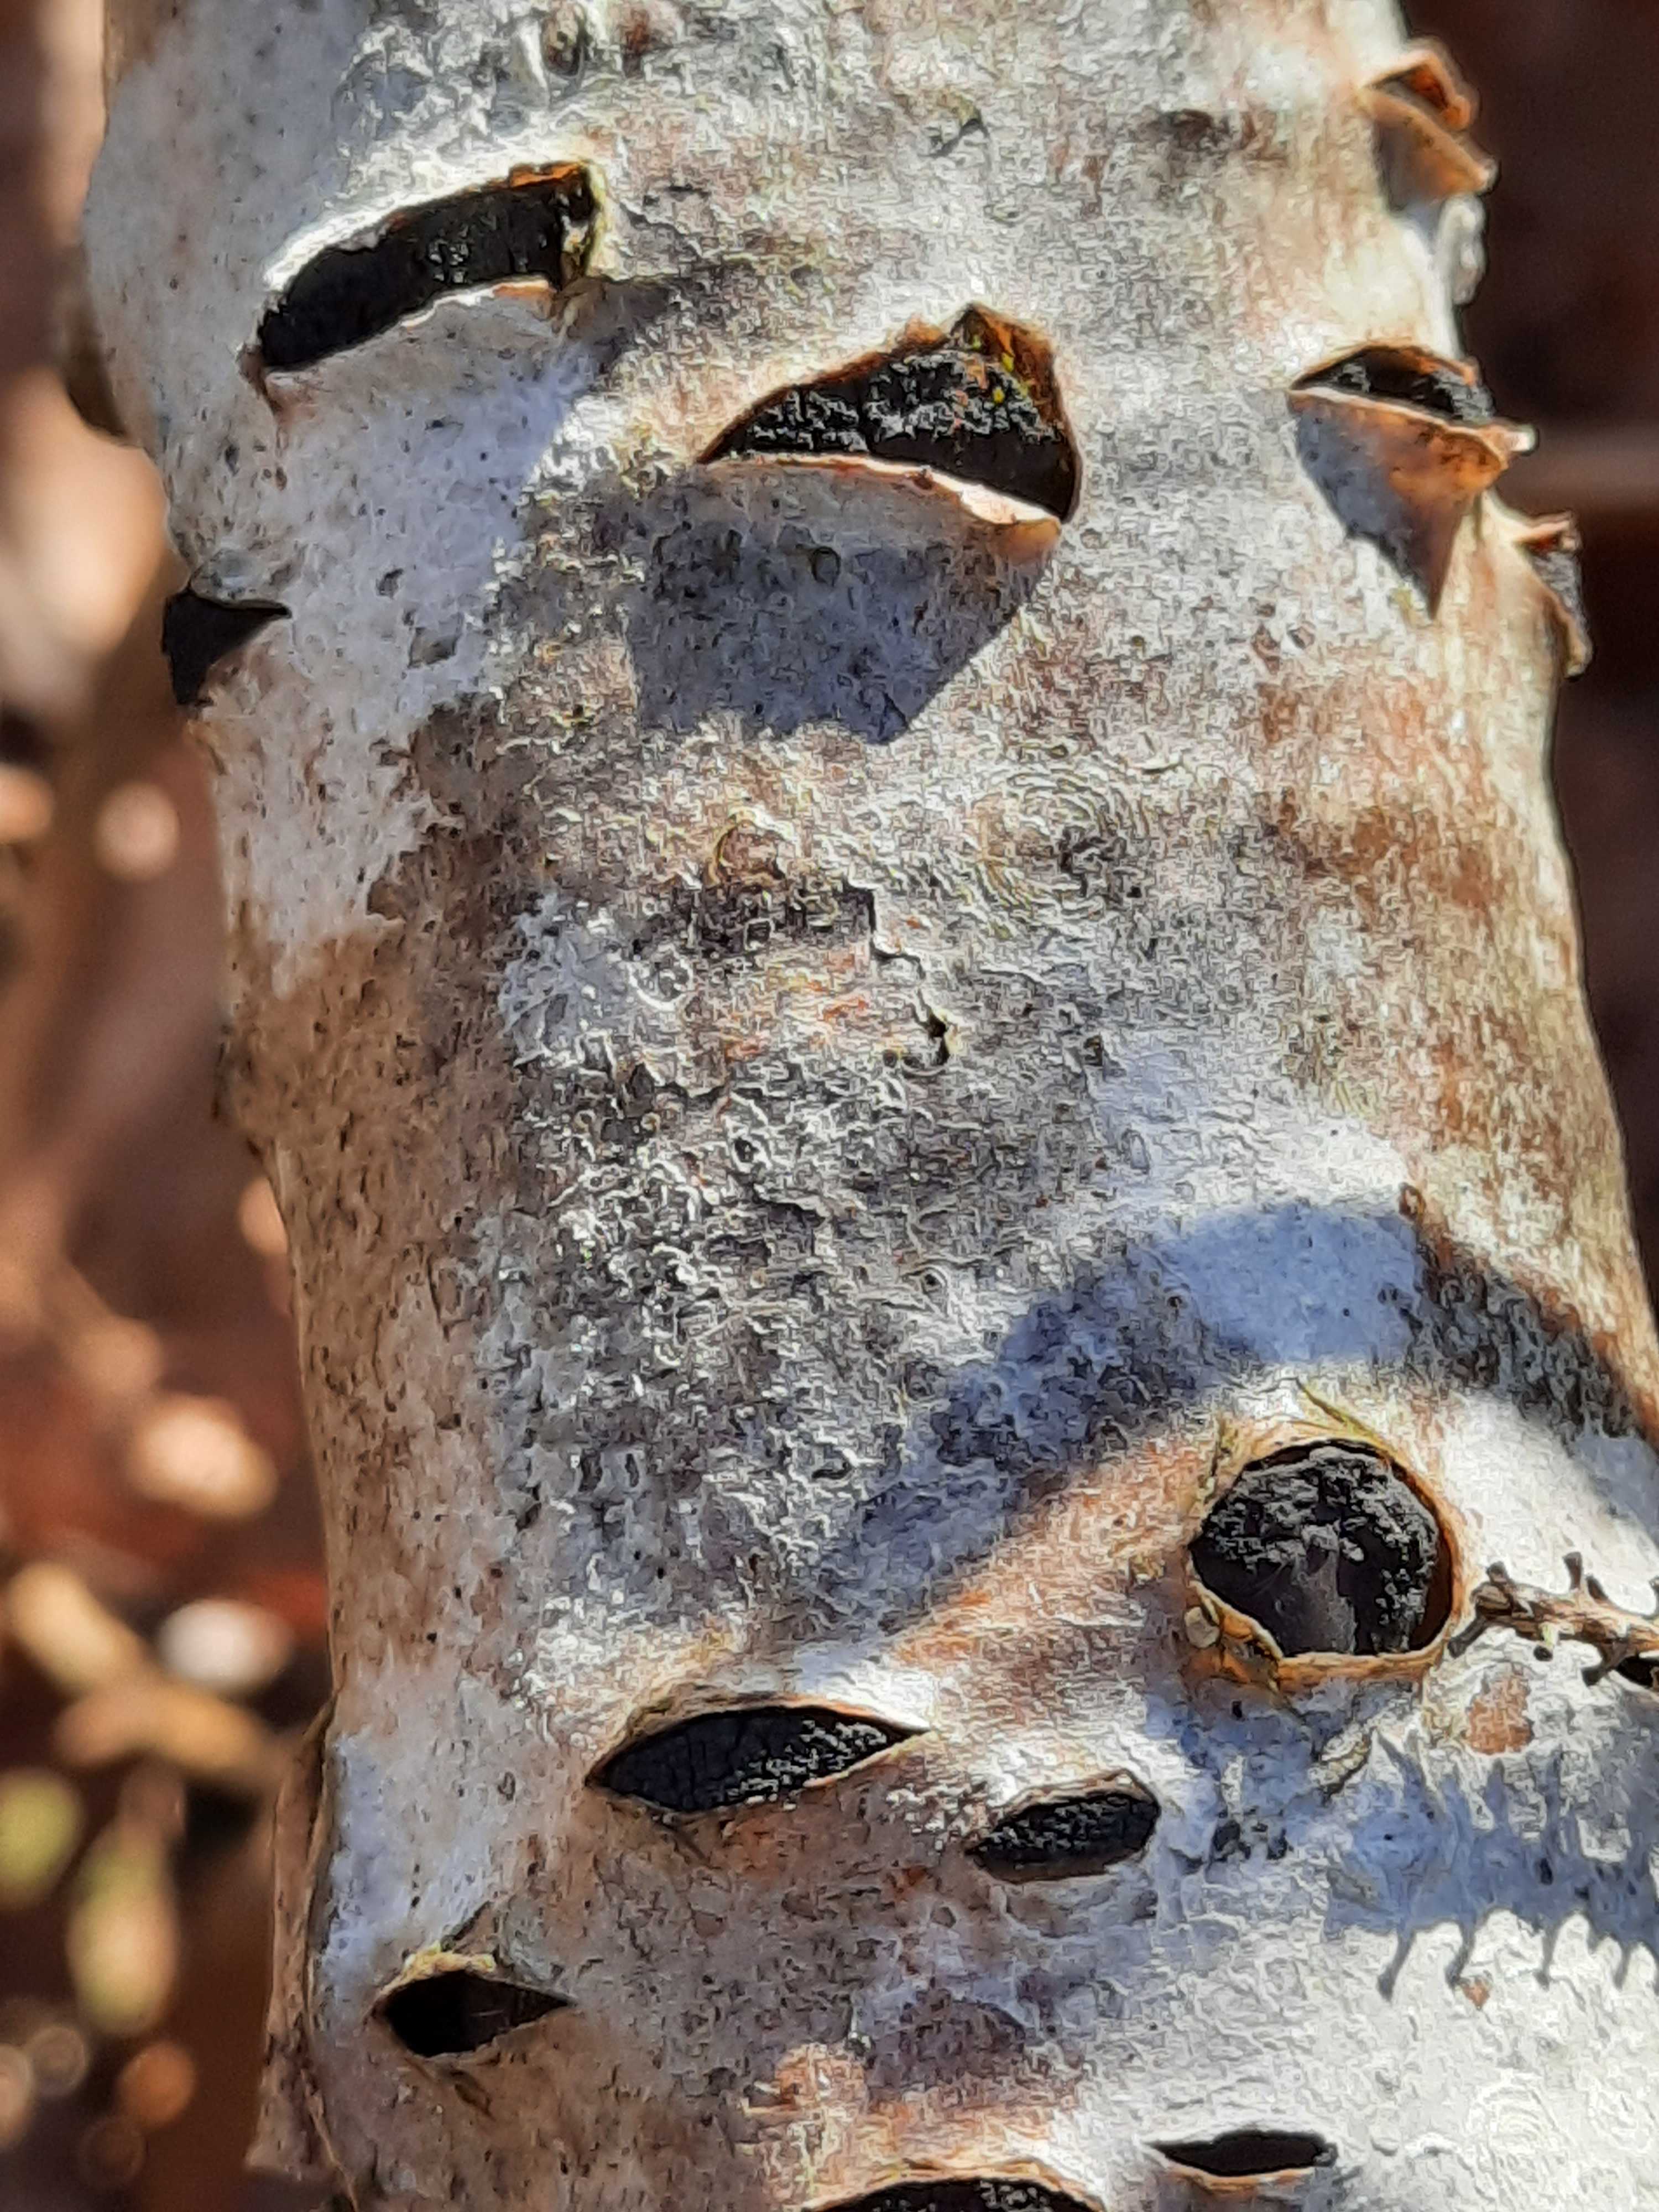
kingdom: Fungi
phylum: Ascomycota
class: Sordariomycetes
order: Xylariales
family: Diatrypaceae
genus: Eutypella
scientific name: Eutypella sorbi
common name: rønne-kulskorpe
